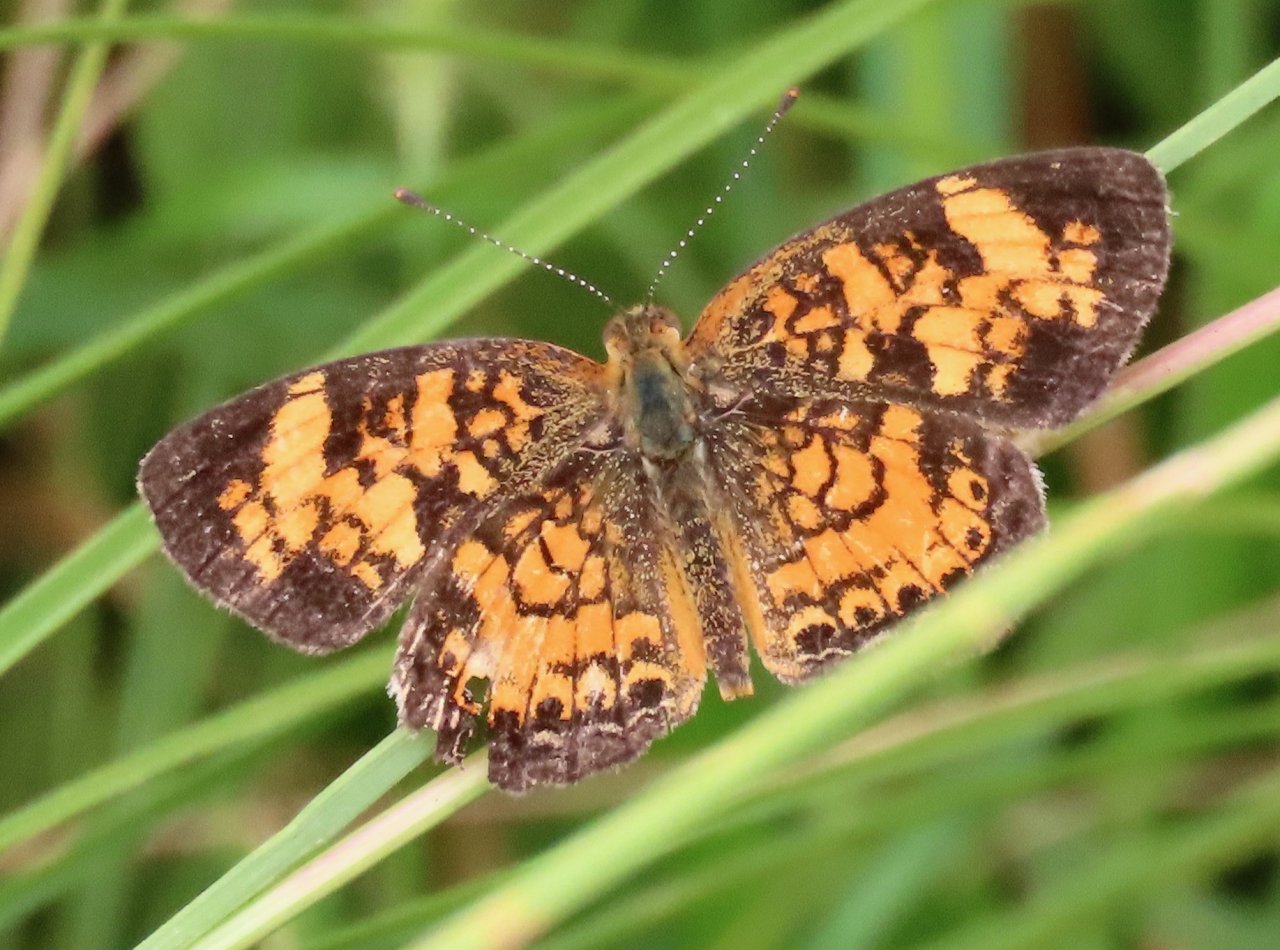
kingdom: Animalia
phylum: Arthropoda
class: Insecta
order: Lepidoptera
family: Nymphalidae
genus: Phyciodes
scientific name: Phyciodes tharos
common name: Pearl Crescent
